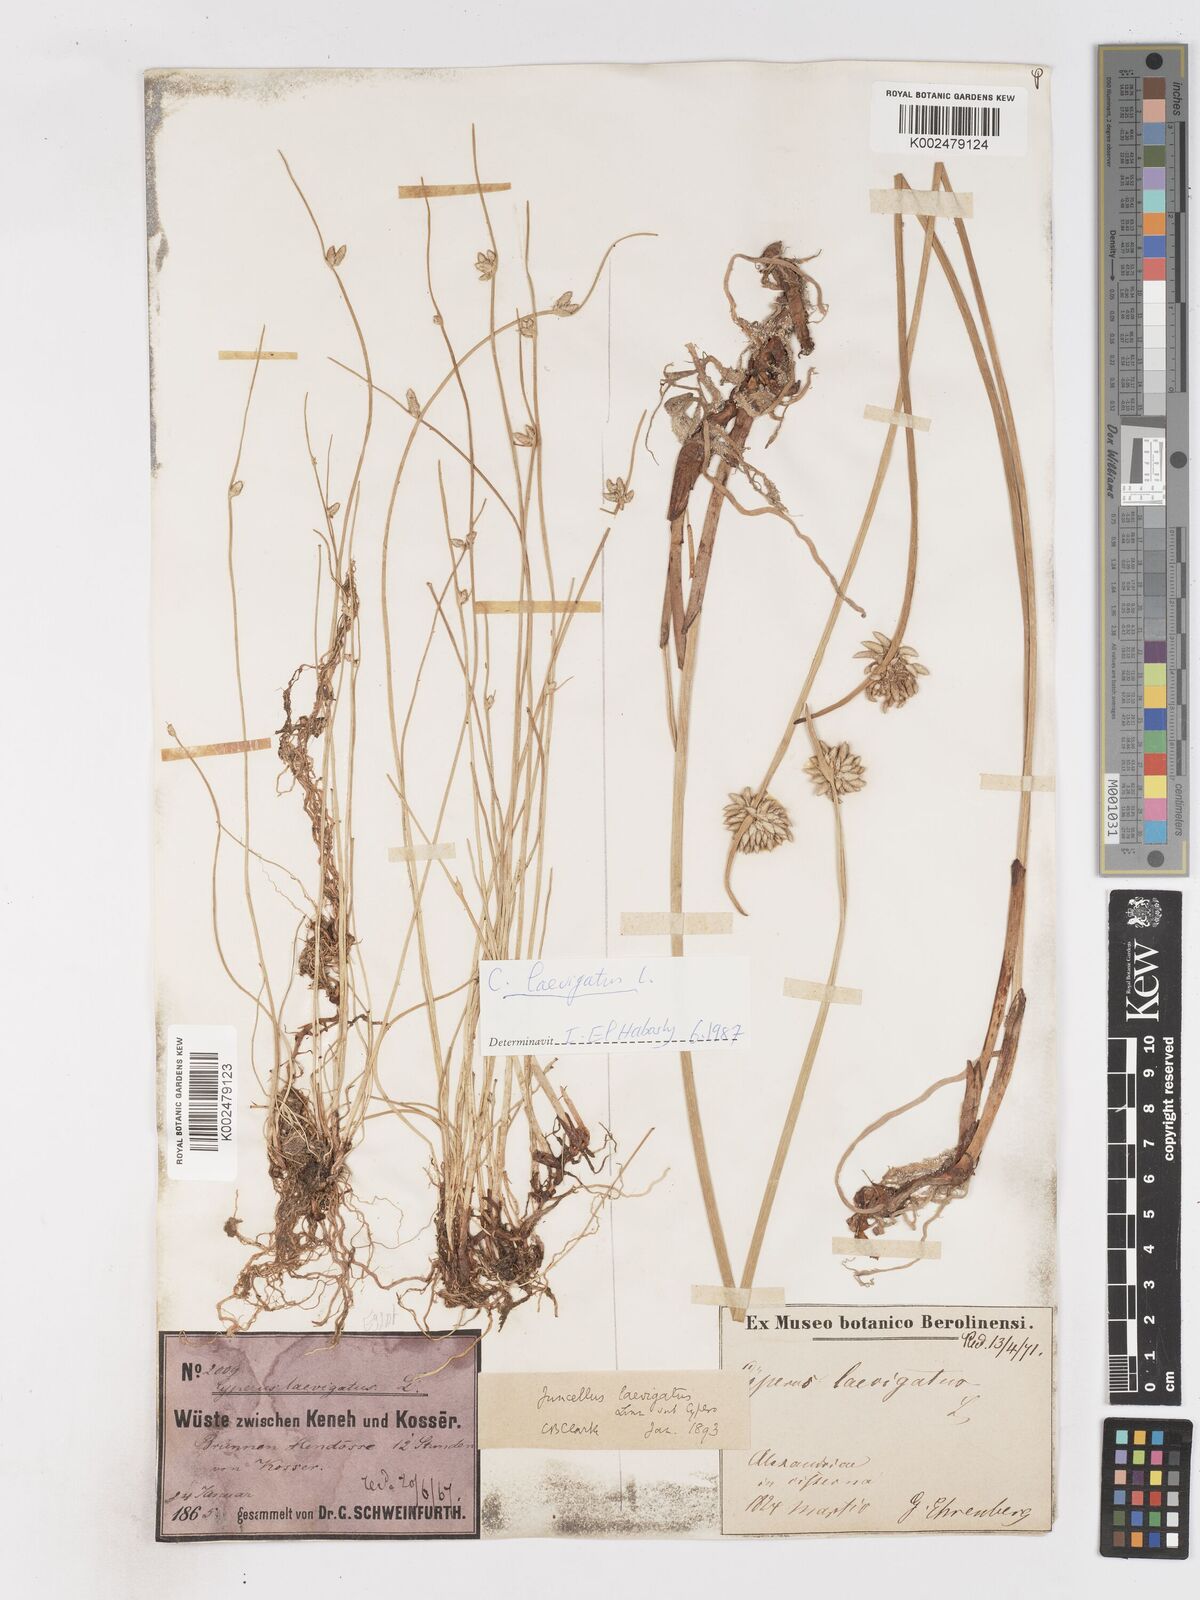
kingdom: Plantae
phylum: Tracheophyta
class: Liliopsida
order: Poales
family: Cyperaceae
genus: Cyperus
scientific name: Cyperus laevigatus
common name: Smooth flat sedge
